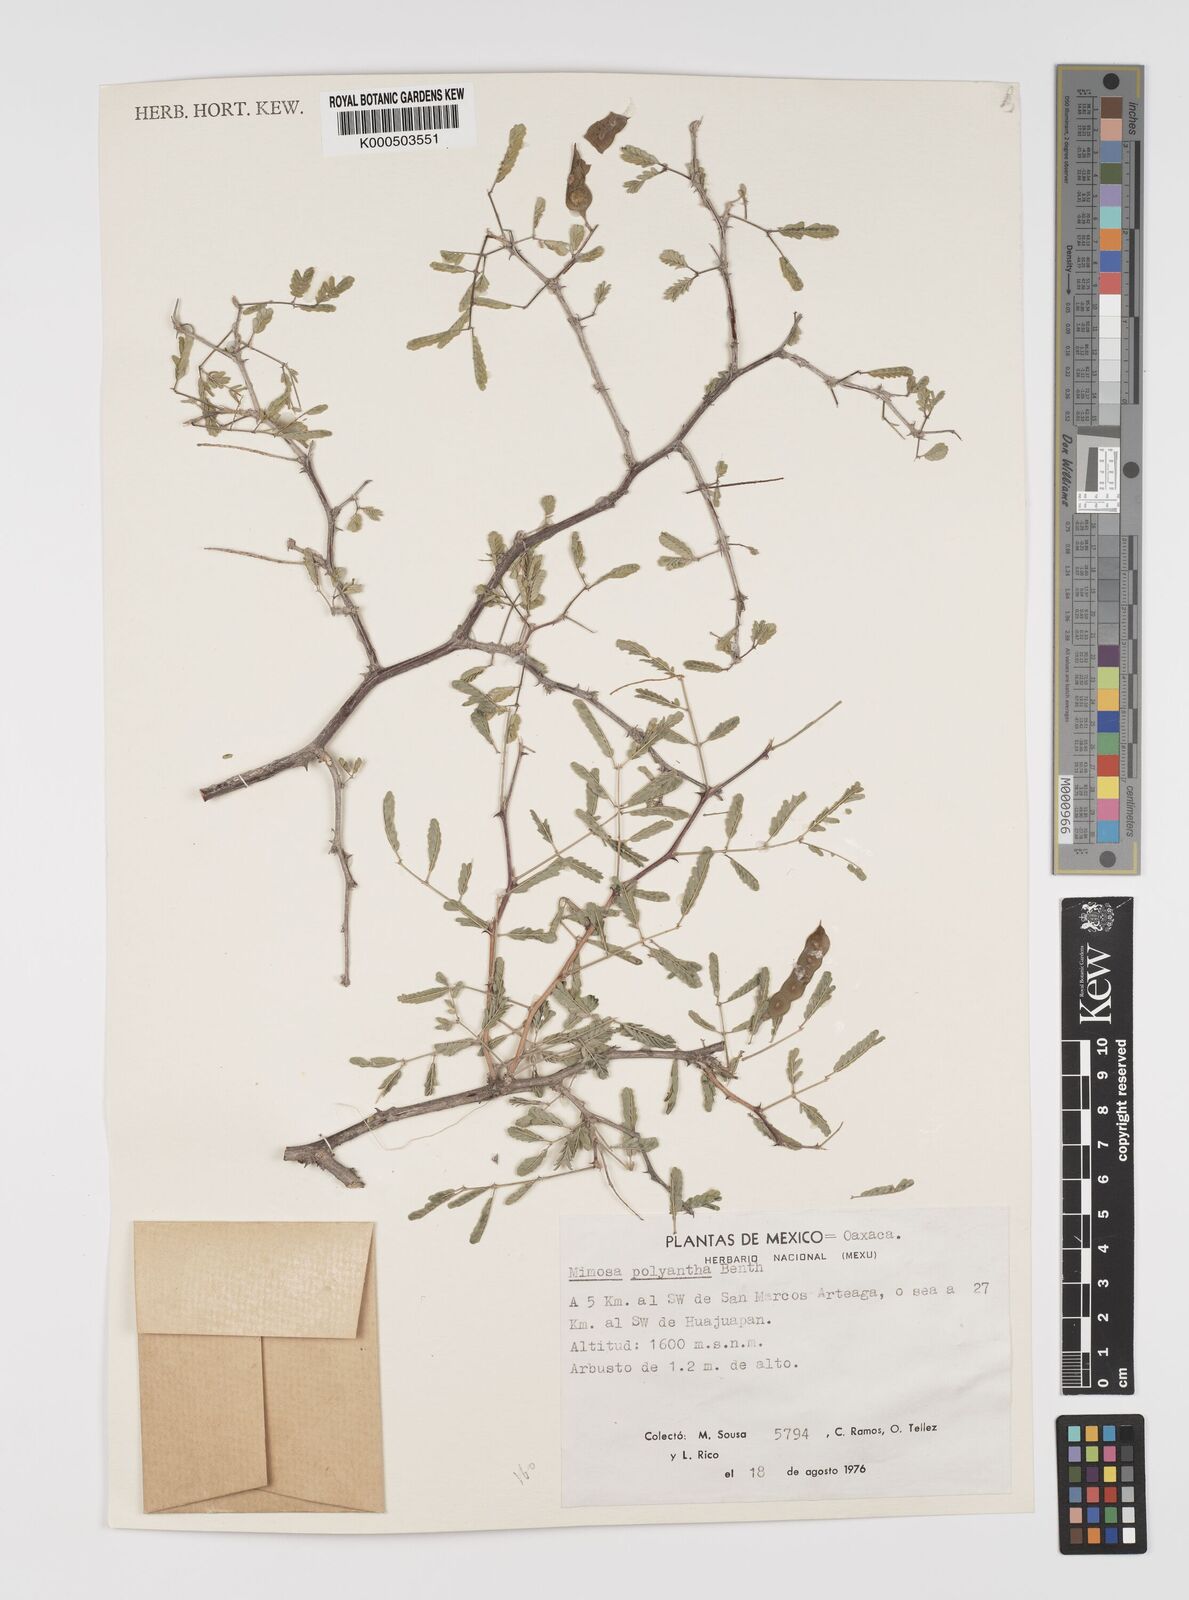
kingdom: Plantae
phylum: Tracheophyta
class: Magnoliopsida
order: Fabales
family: Fabaceae
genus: Mimosa
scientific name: Mimosa polyantha
